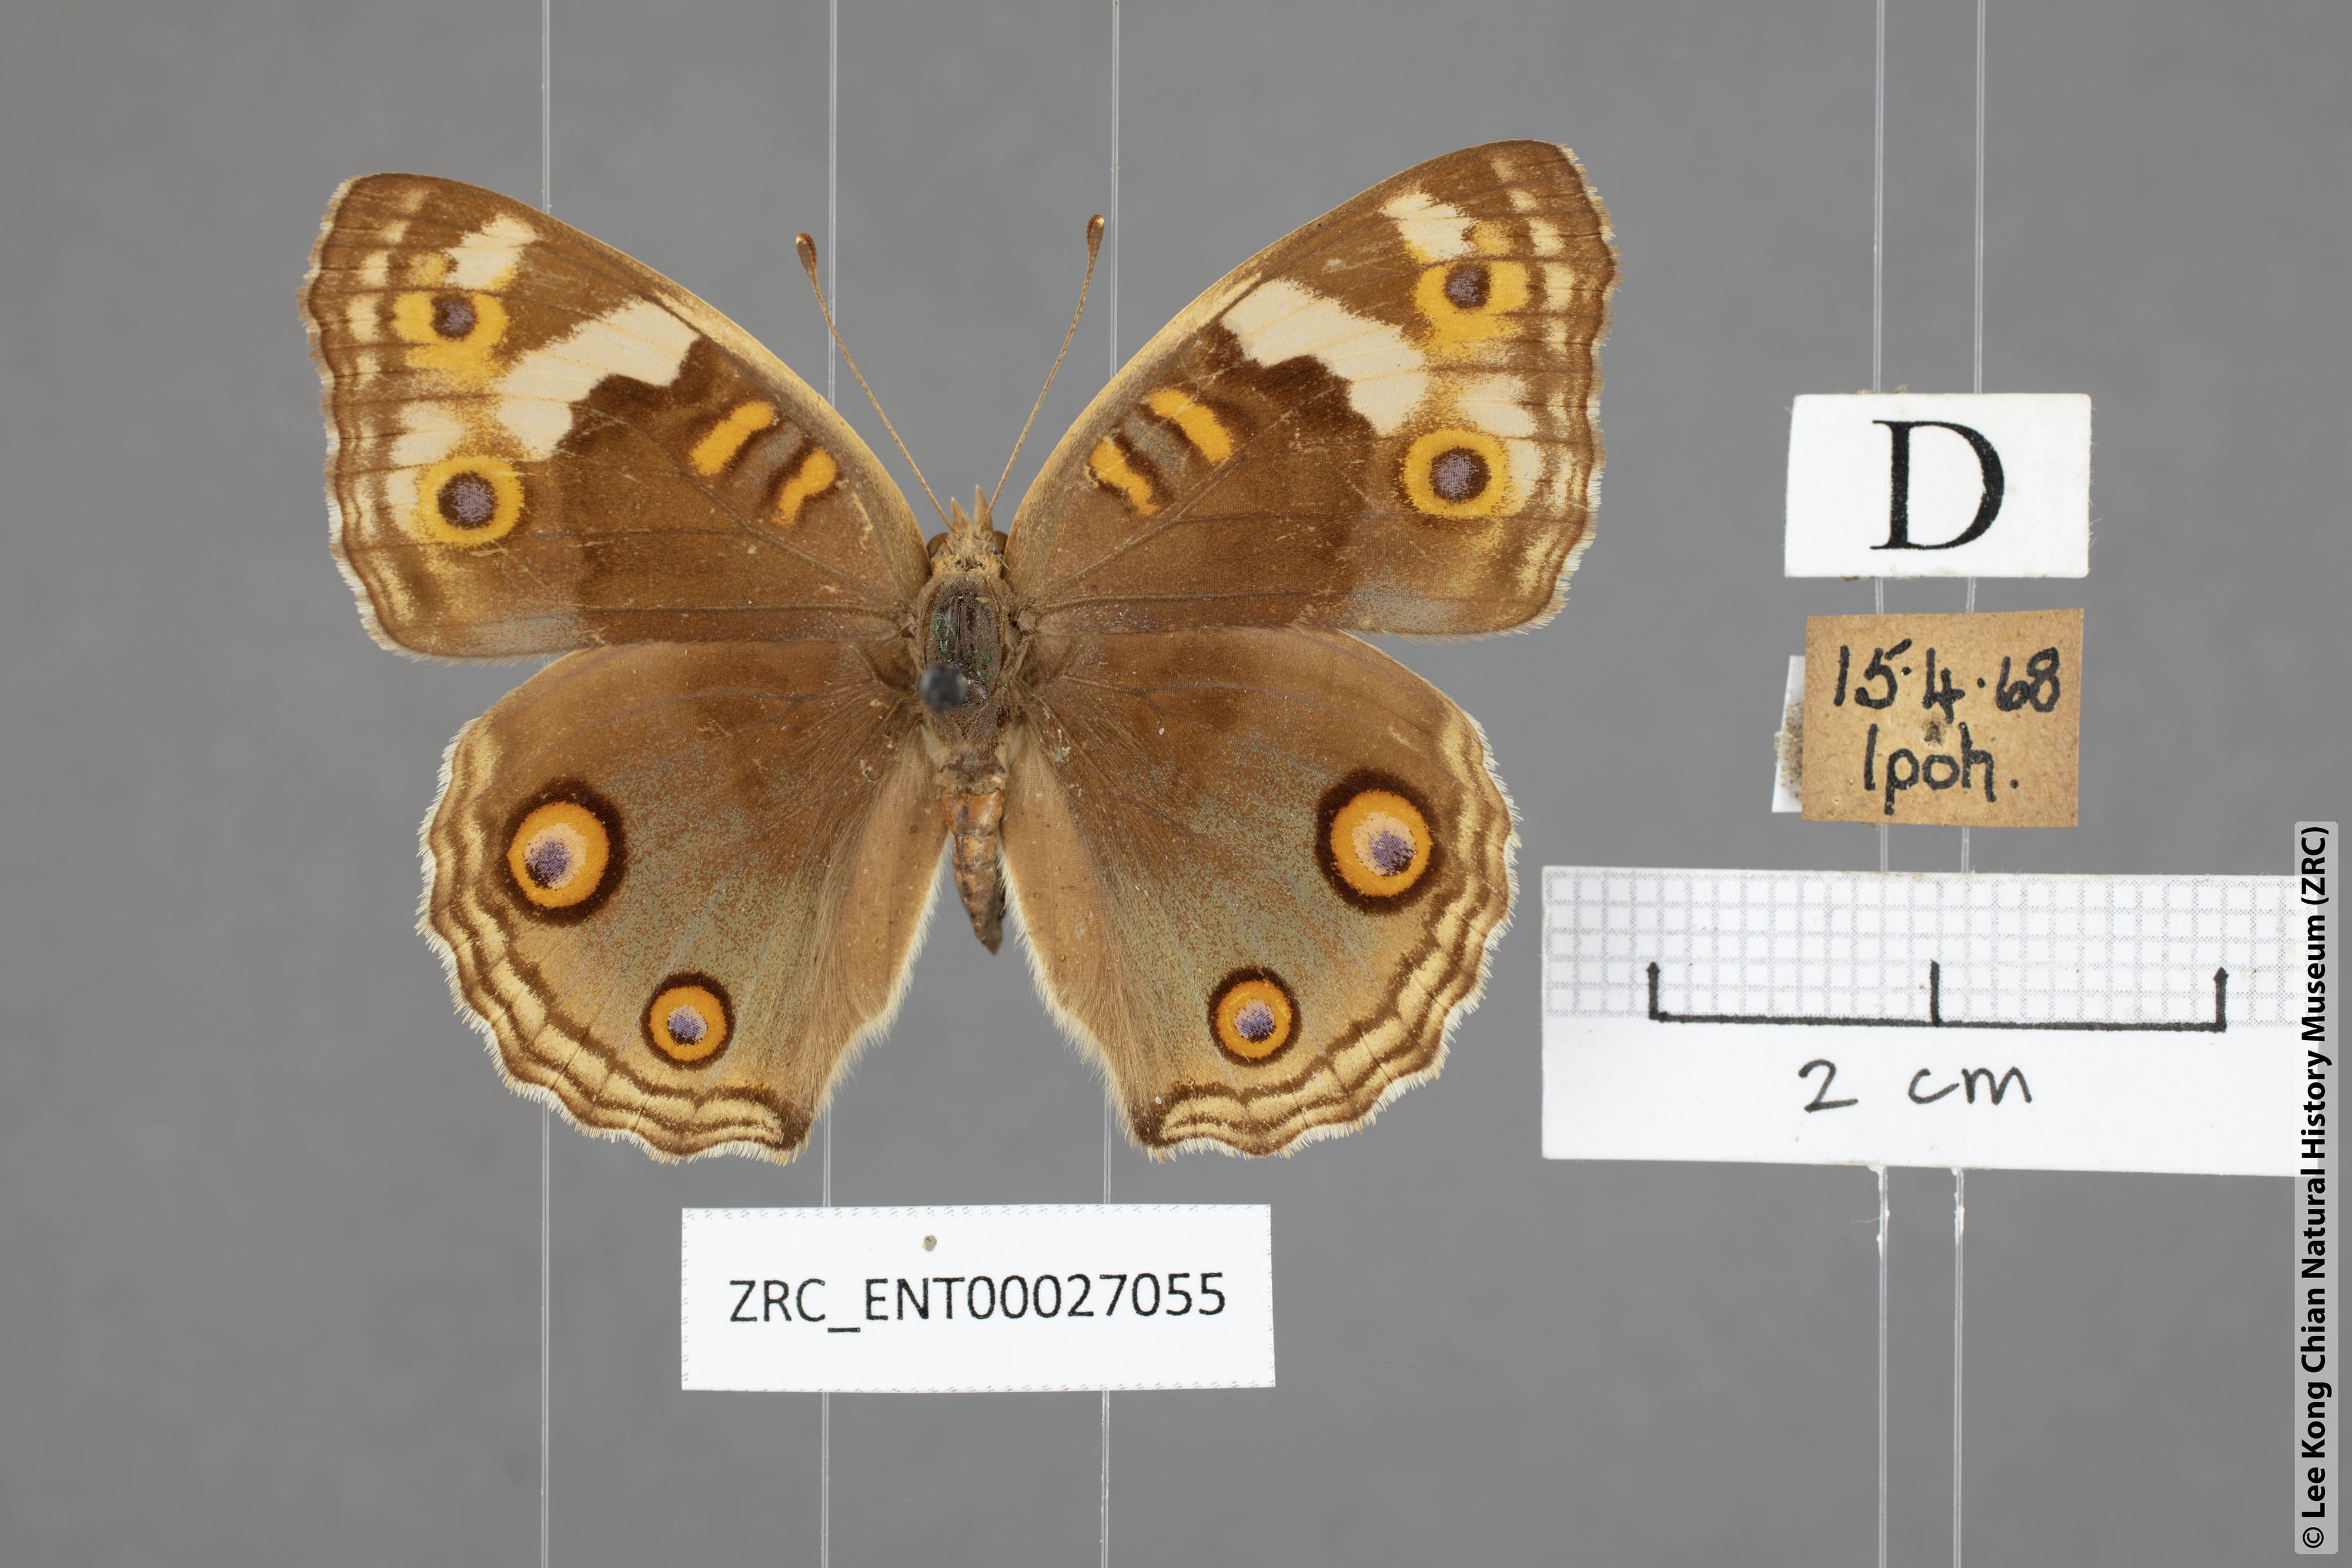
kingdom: Animalia
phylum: Arthropoda
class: Insecta
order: Lepidoptera
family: Nymphalidae
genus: Junonia
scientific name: Junonia orithya
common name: Blue pansy
